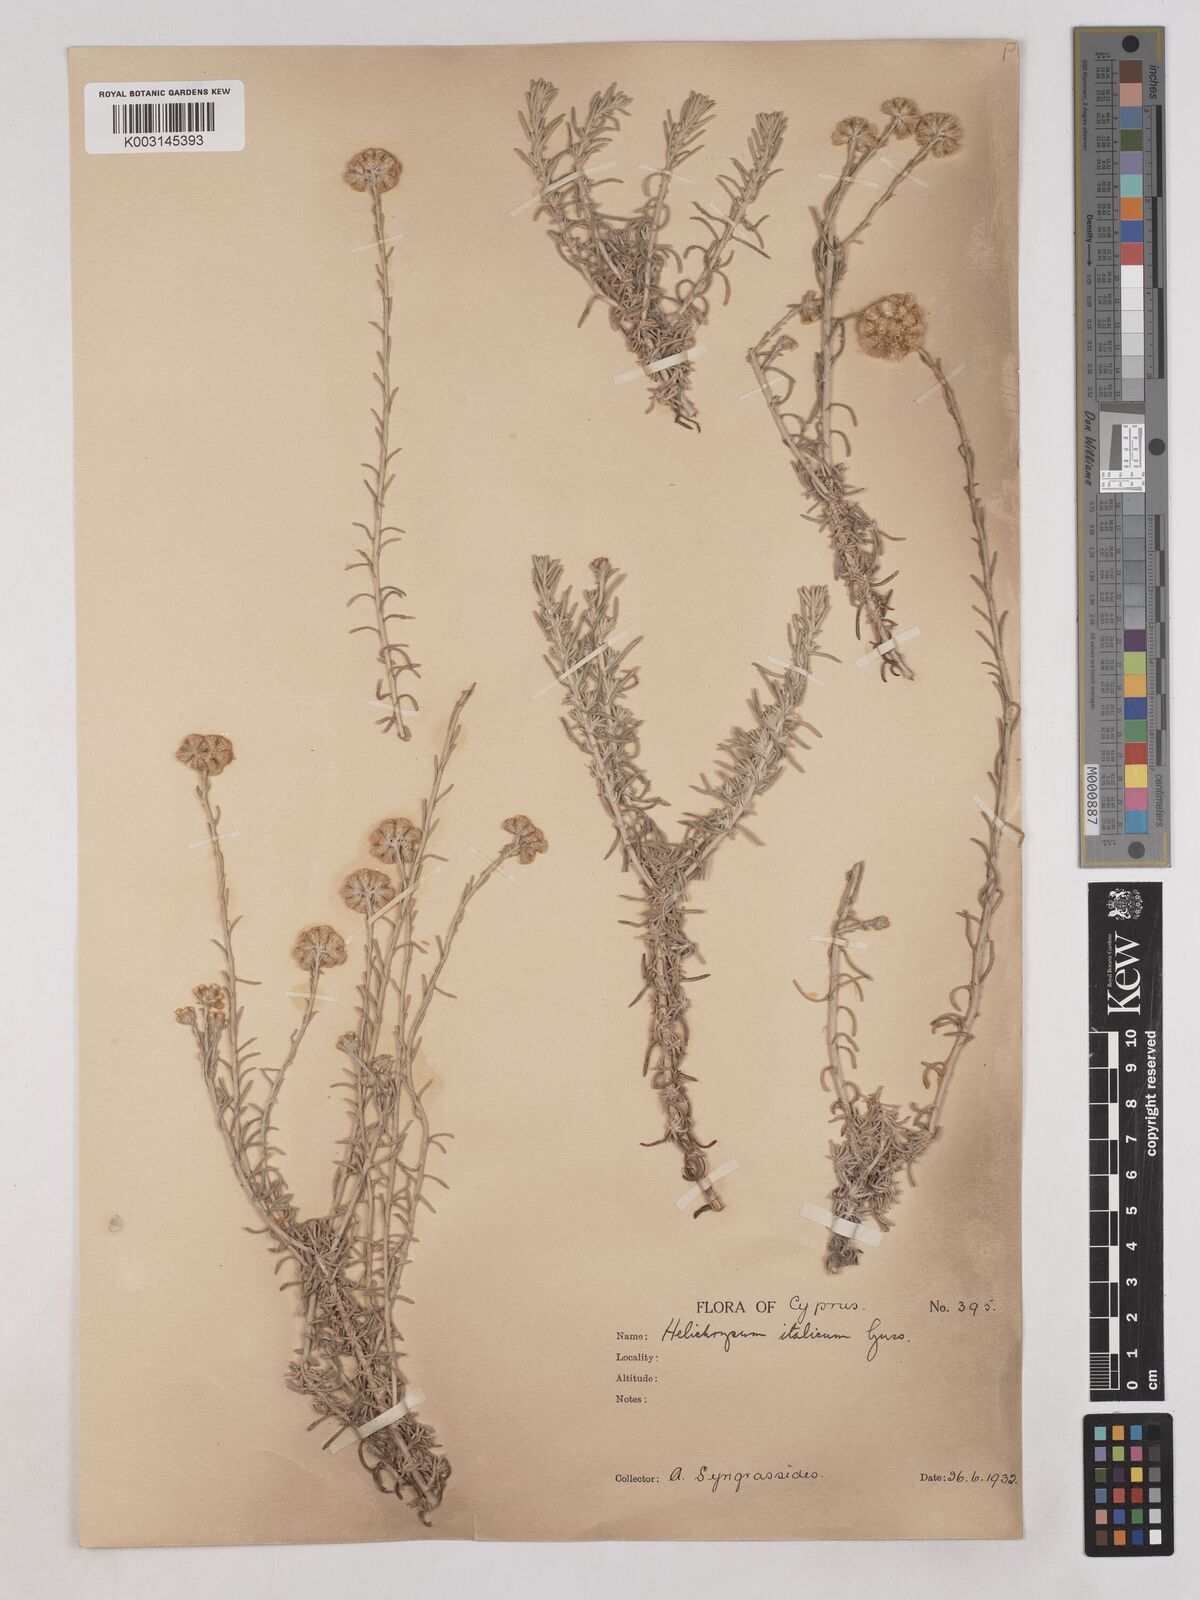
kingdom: Plantae
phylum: Tracheophyta
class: Magnoliopsida
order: Asterales
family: Asteraceae
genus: Helichrysum
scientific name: Helichrysum italicum
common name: Curryplant
